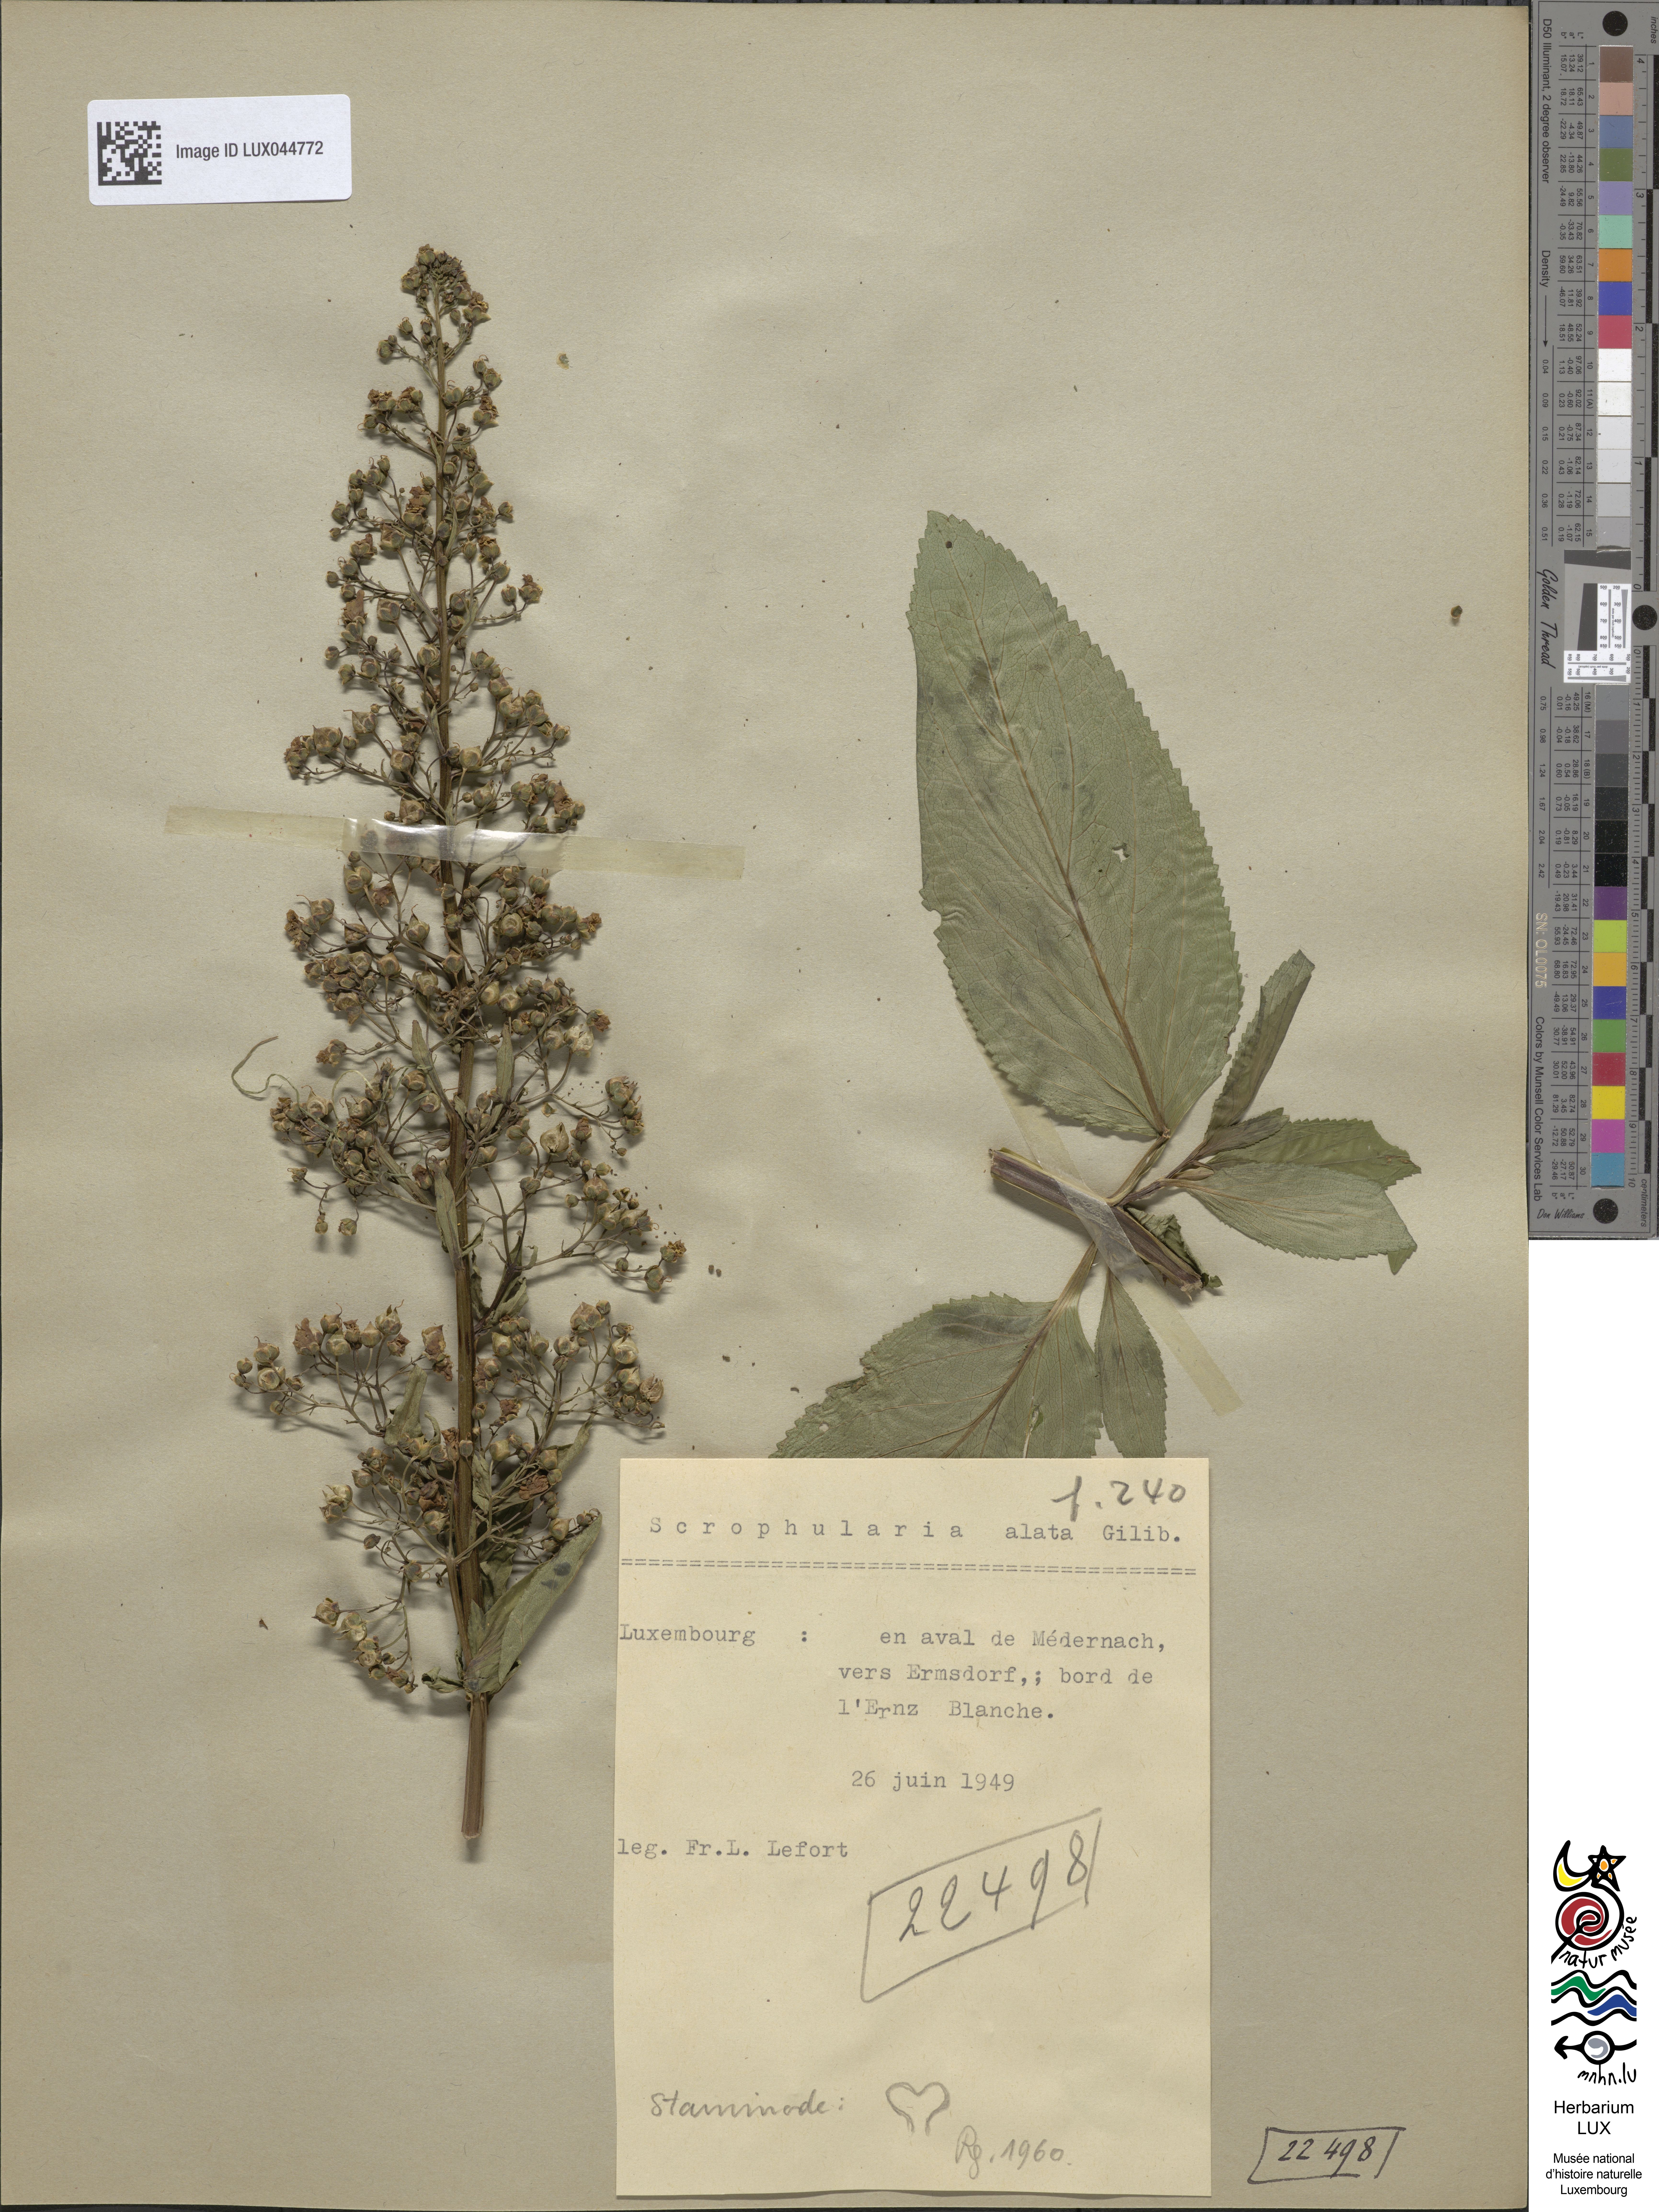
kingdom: Plantae
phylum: Tracheophyta
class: Magnoliopsida
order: Lamiales
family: Scrophulariaceae
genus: Scrophularia
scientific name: Scrophularia umbrosa
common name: Green figwort
